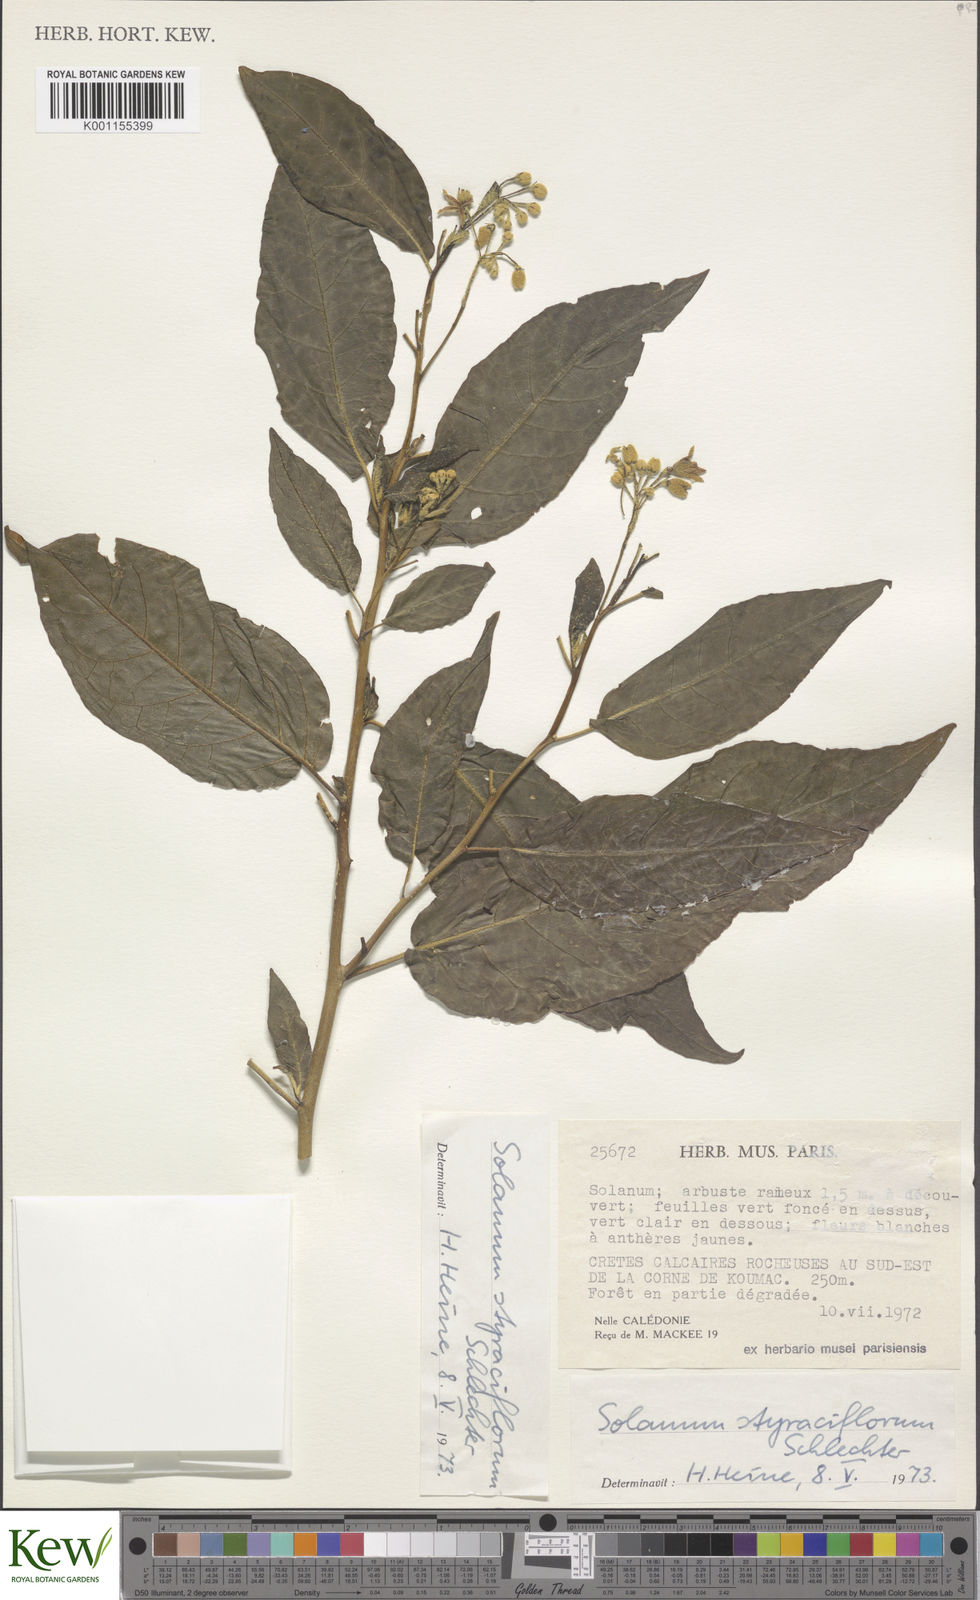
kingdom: Plantae
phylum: Tracheophyta
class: Magnoliopsida
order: Solanales
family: Solanaceae
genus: Solanum
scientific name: Solanum artense
